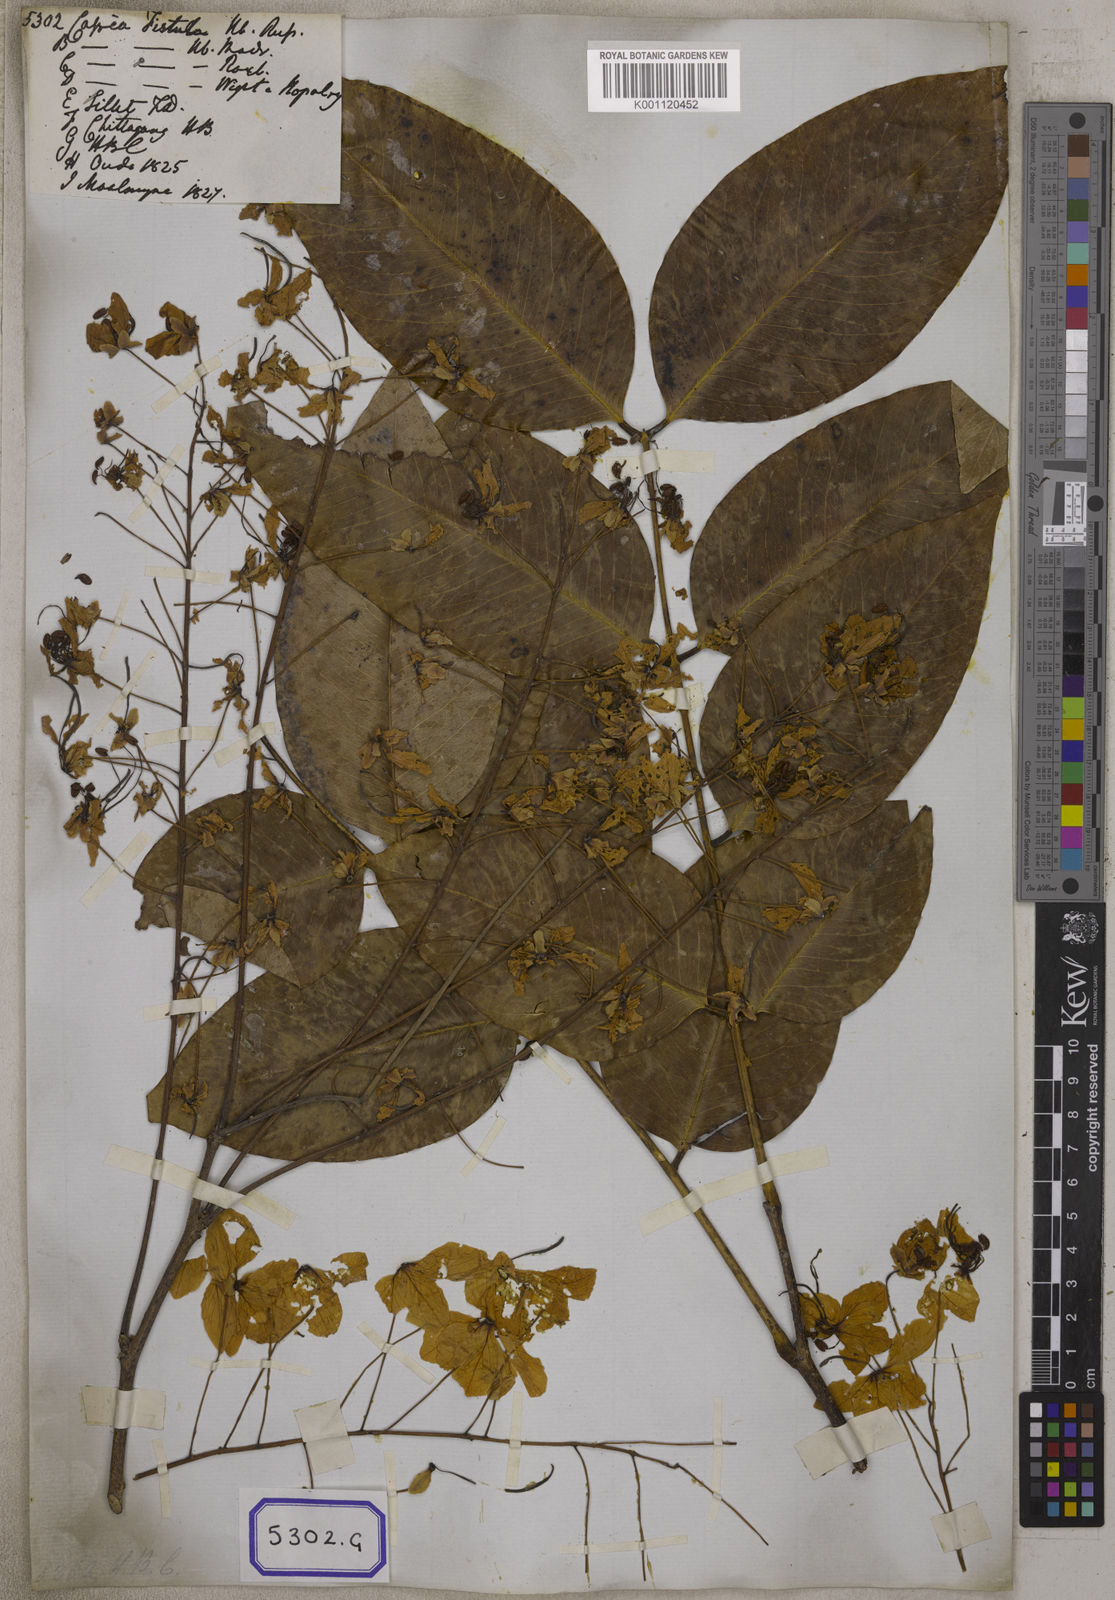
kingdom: Plantae
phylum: Tracheophyta
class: Magnoliopsida
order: Fabales
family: Fabaceae
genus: Cassia
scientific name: Cassia fistula
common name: Golden shower
